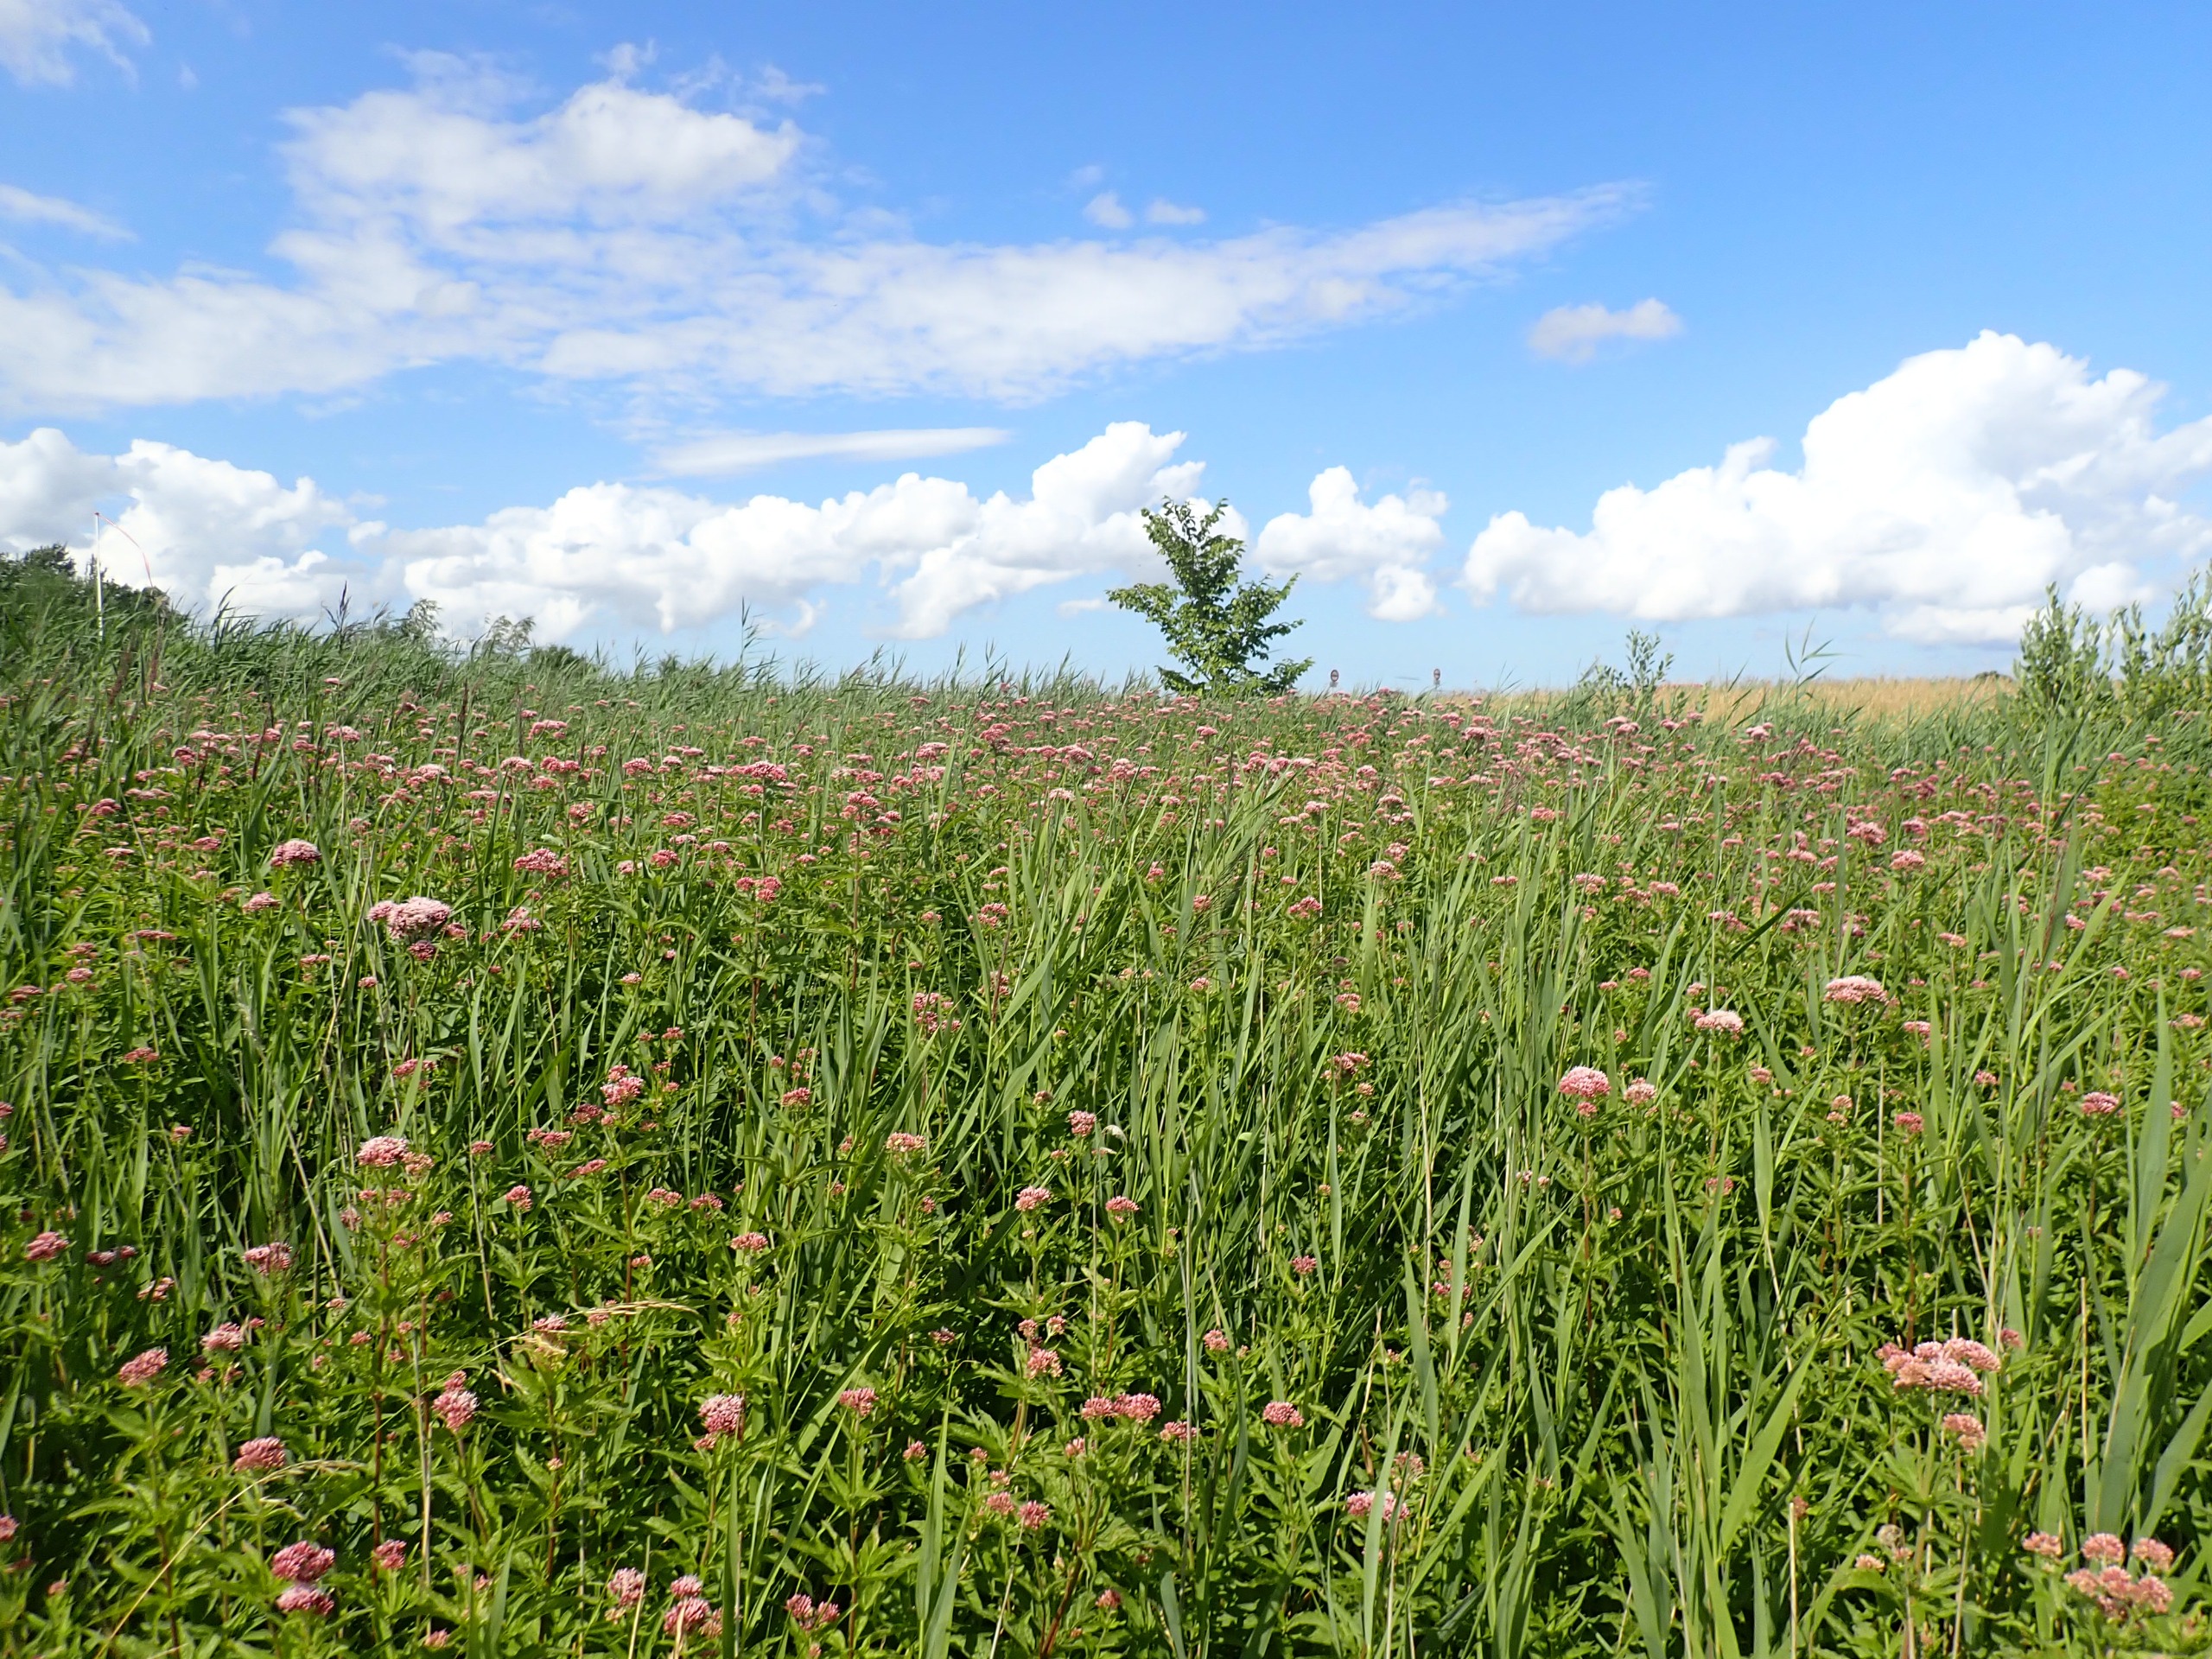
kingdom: Plantae
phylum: Tracheophyta
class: Magnoliopsida
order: Asterales
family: Asteraceae
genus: Eupatorium
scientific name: Eupatorium cannabinum
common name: Hjortetrøst
